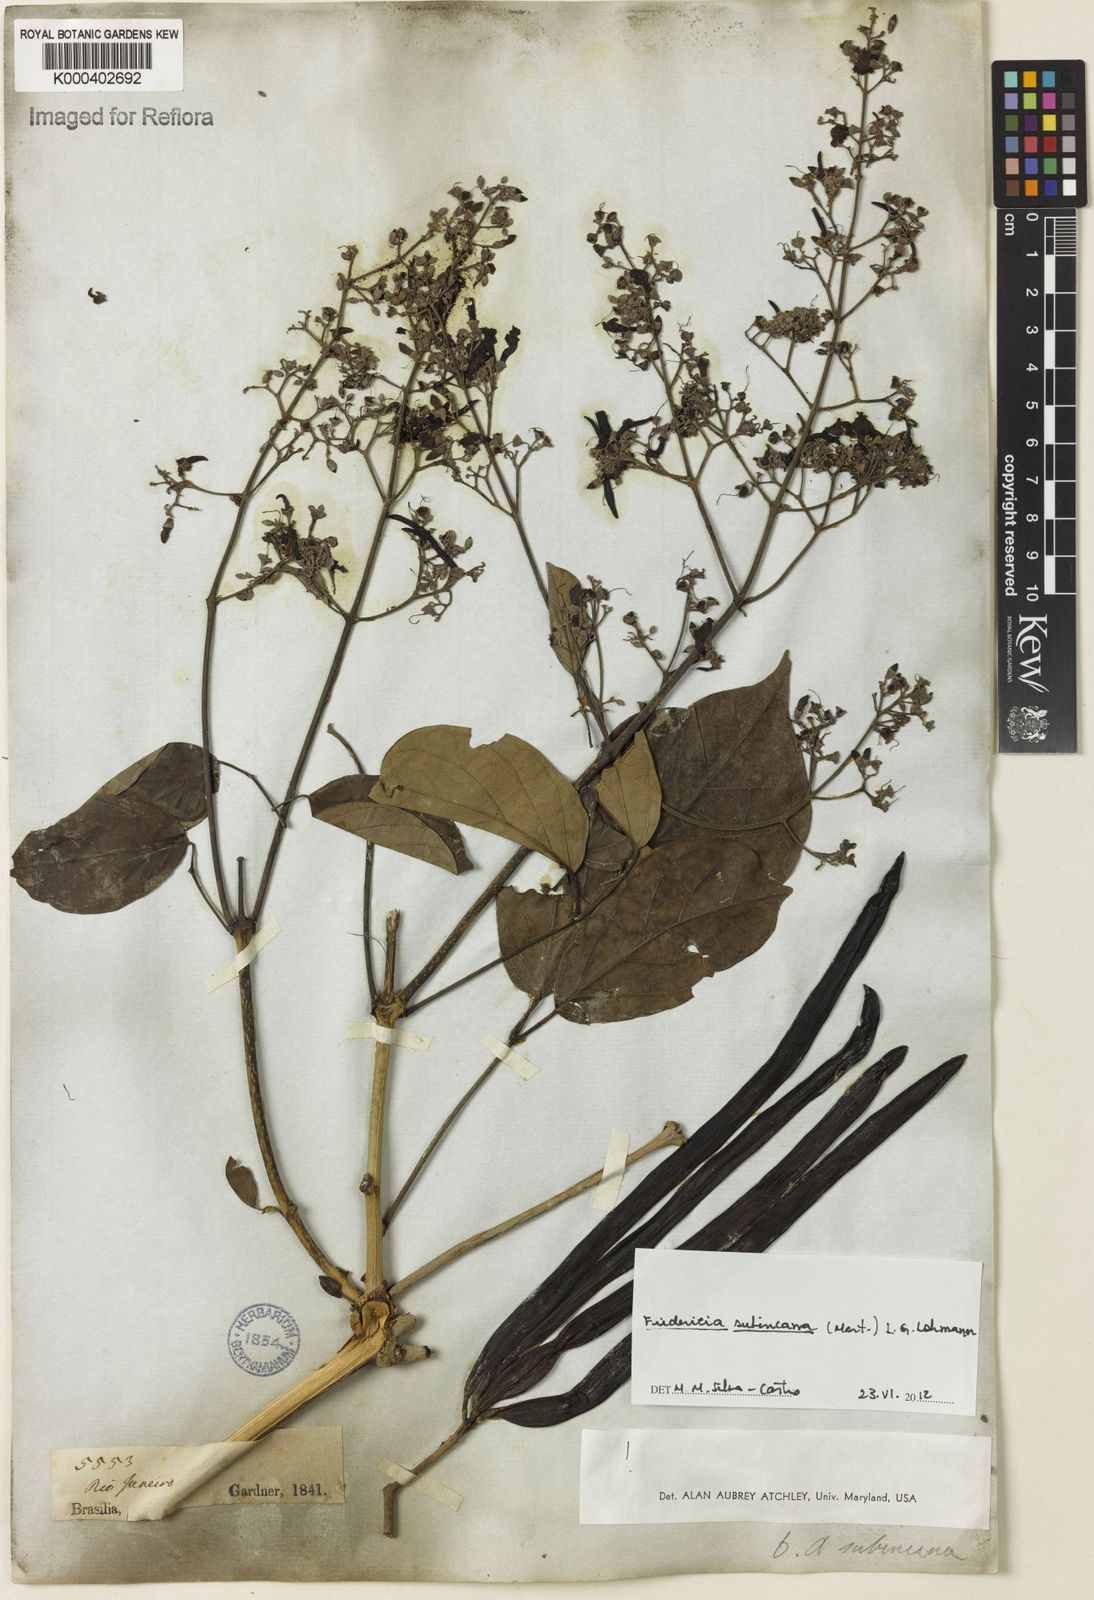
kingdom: Plantae
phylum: Tracheophyta
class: Magnoliopsida
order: Lamiales
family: Bignoniaceae
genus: Fridericia
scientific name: Fridericia subincana
